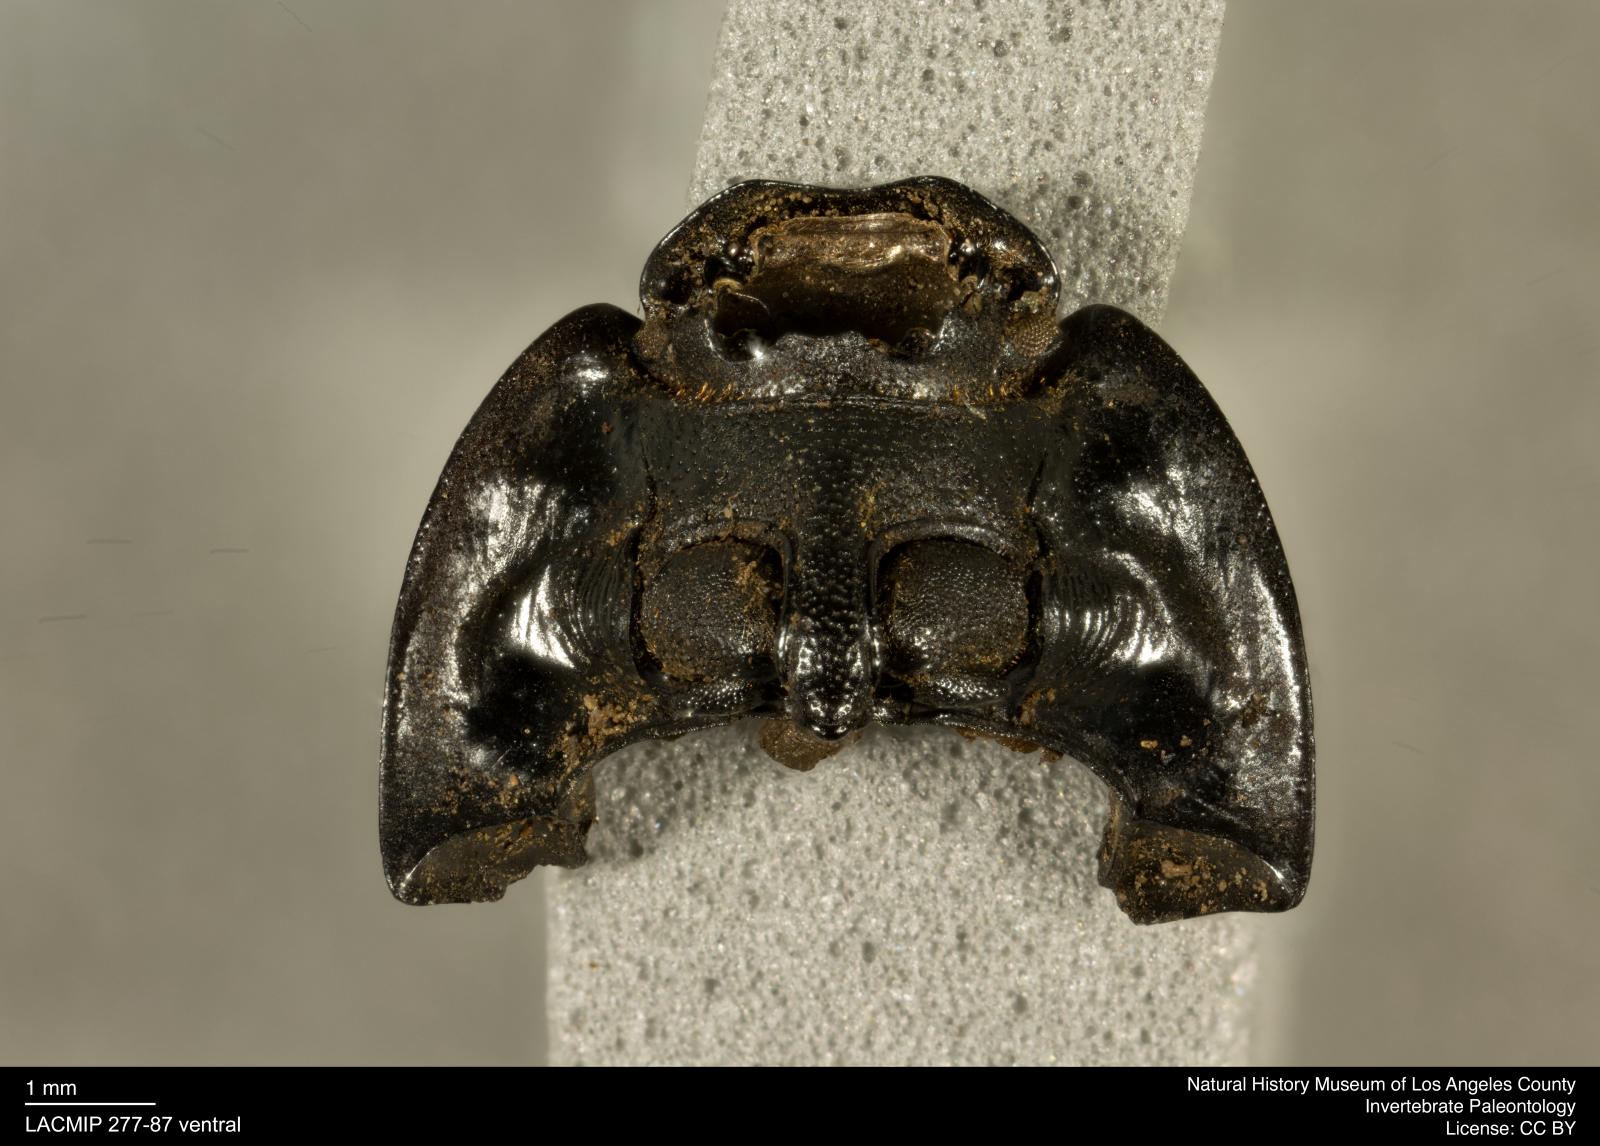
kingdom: Animalia
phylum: Arthropoda
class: Insecta
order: Coleoptera
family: Tenebrionidae
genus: Coniontis
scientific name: Coniontis abdominalis
